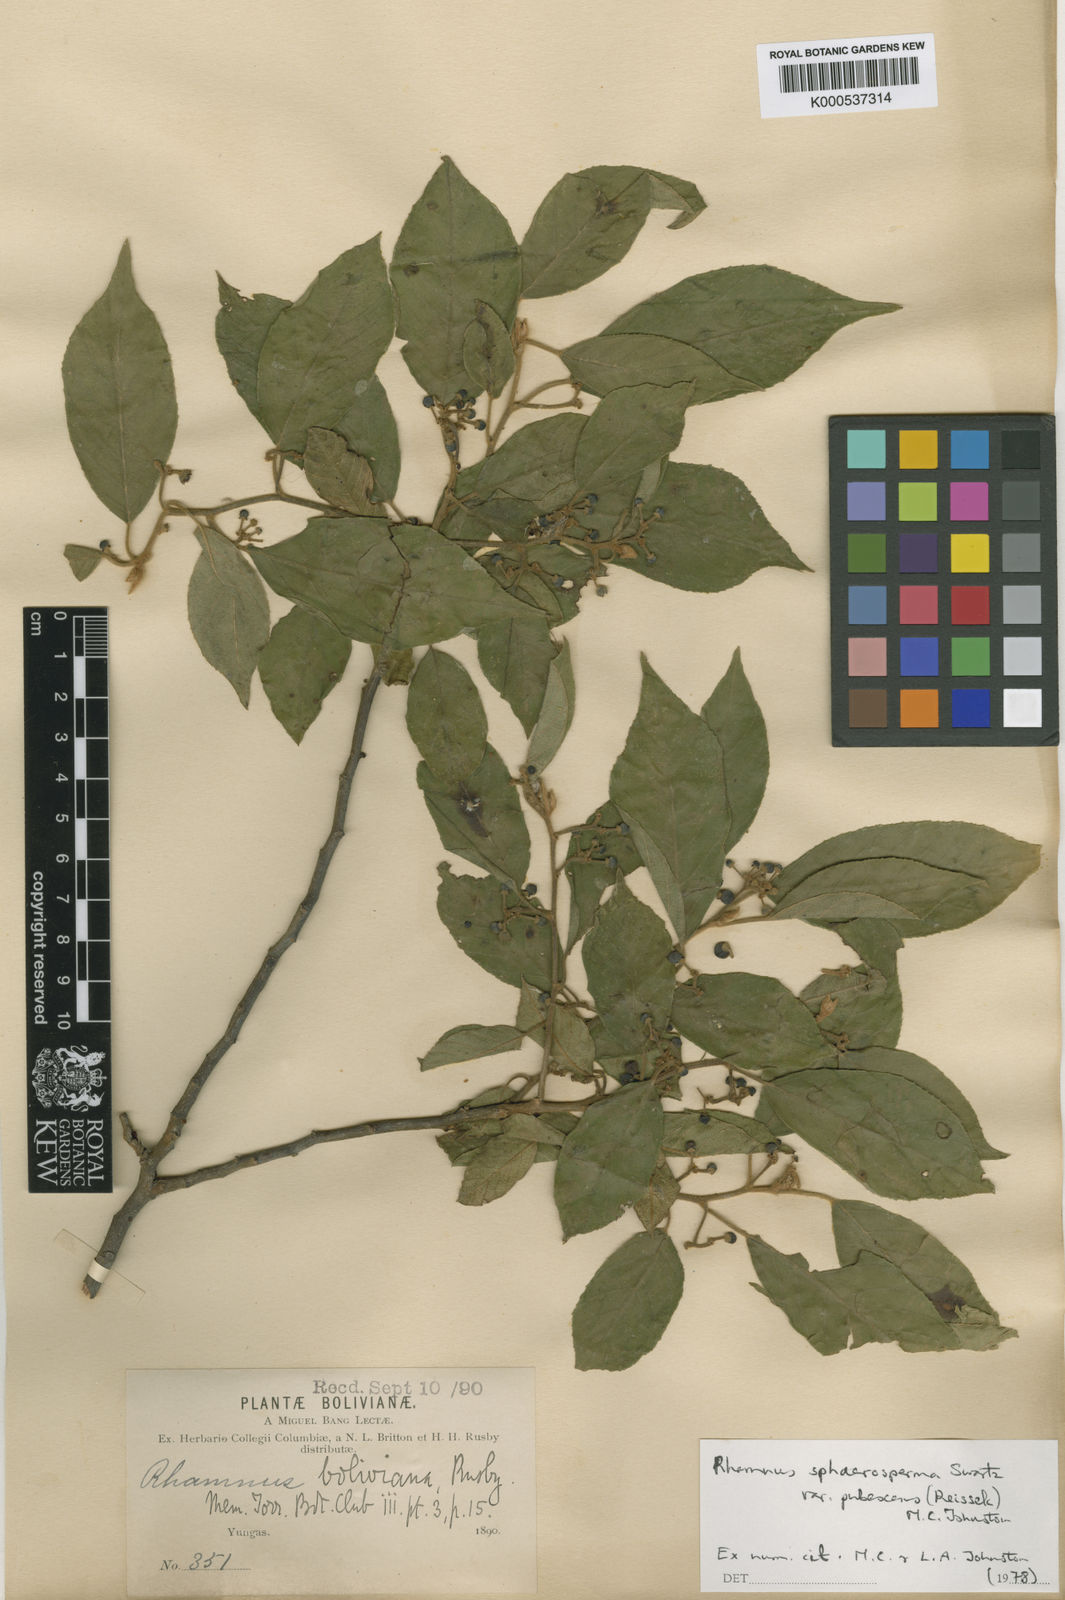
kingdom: Plantae
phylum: Tracheophyta
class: Magnoliopsida
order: Rosales
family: Rhamnaceae
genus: Frangula
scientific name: Frangula
